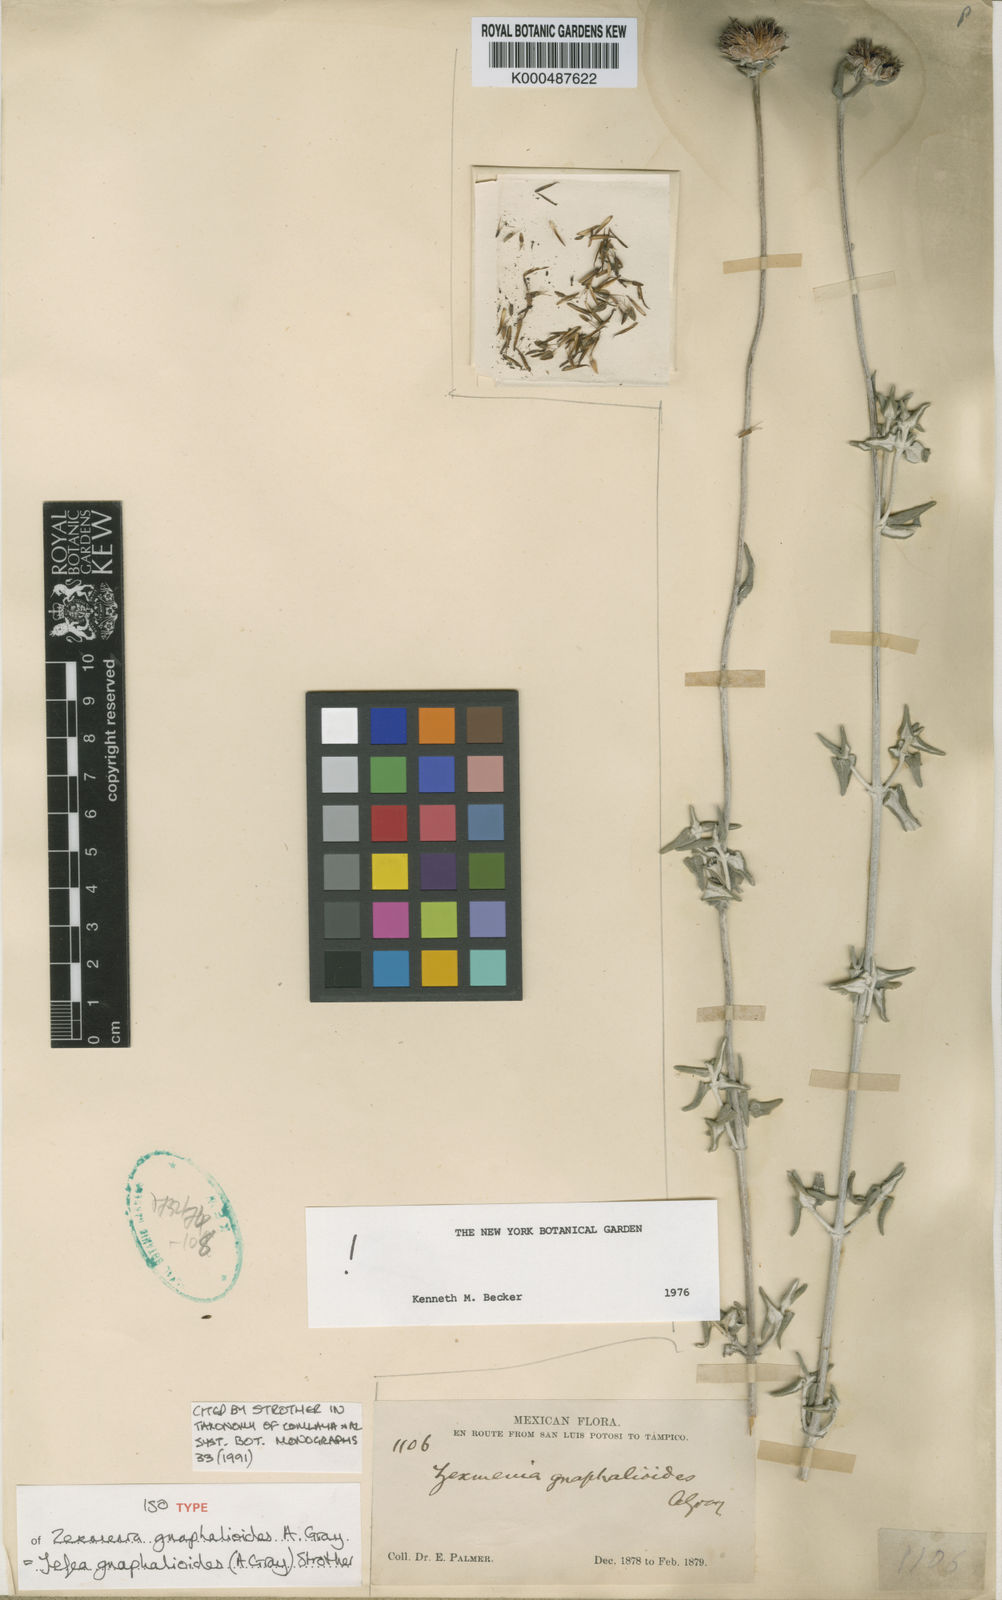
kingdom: Plantae
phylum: Tracheophyta
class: Magnoliopsida
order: Asterales
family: Asteraceae
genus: Jefea
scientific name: Jefea gnaphalioides
